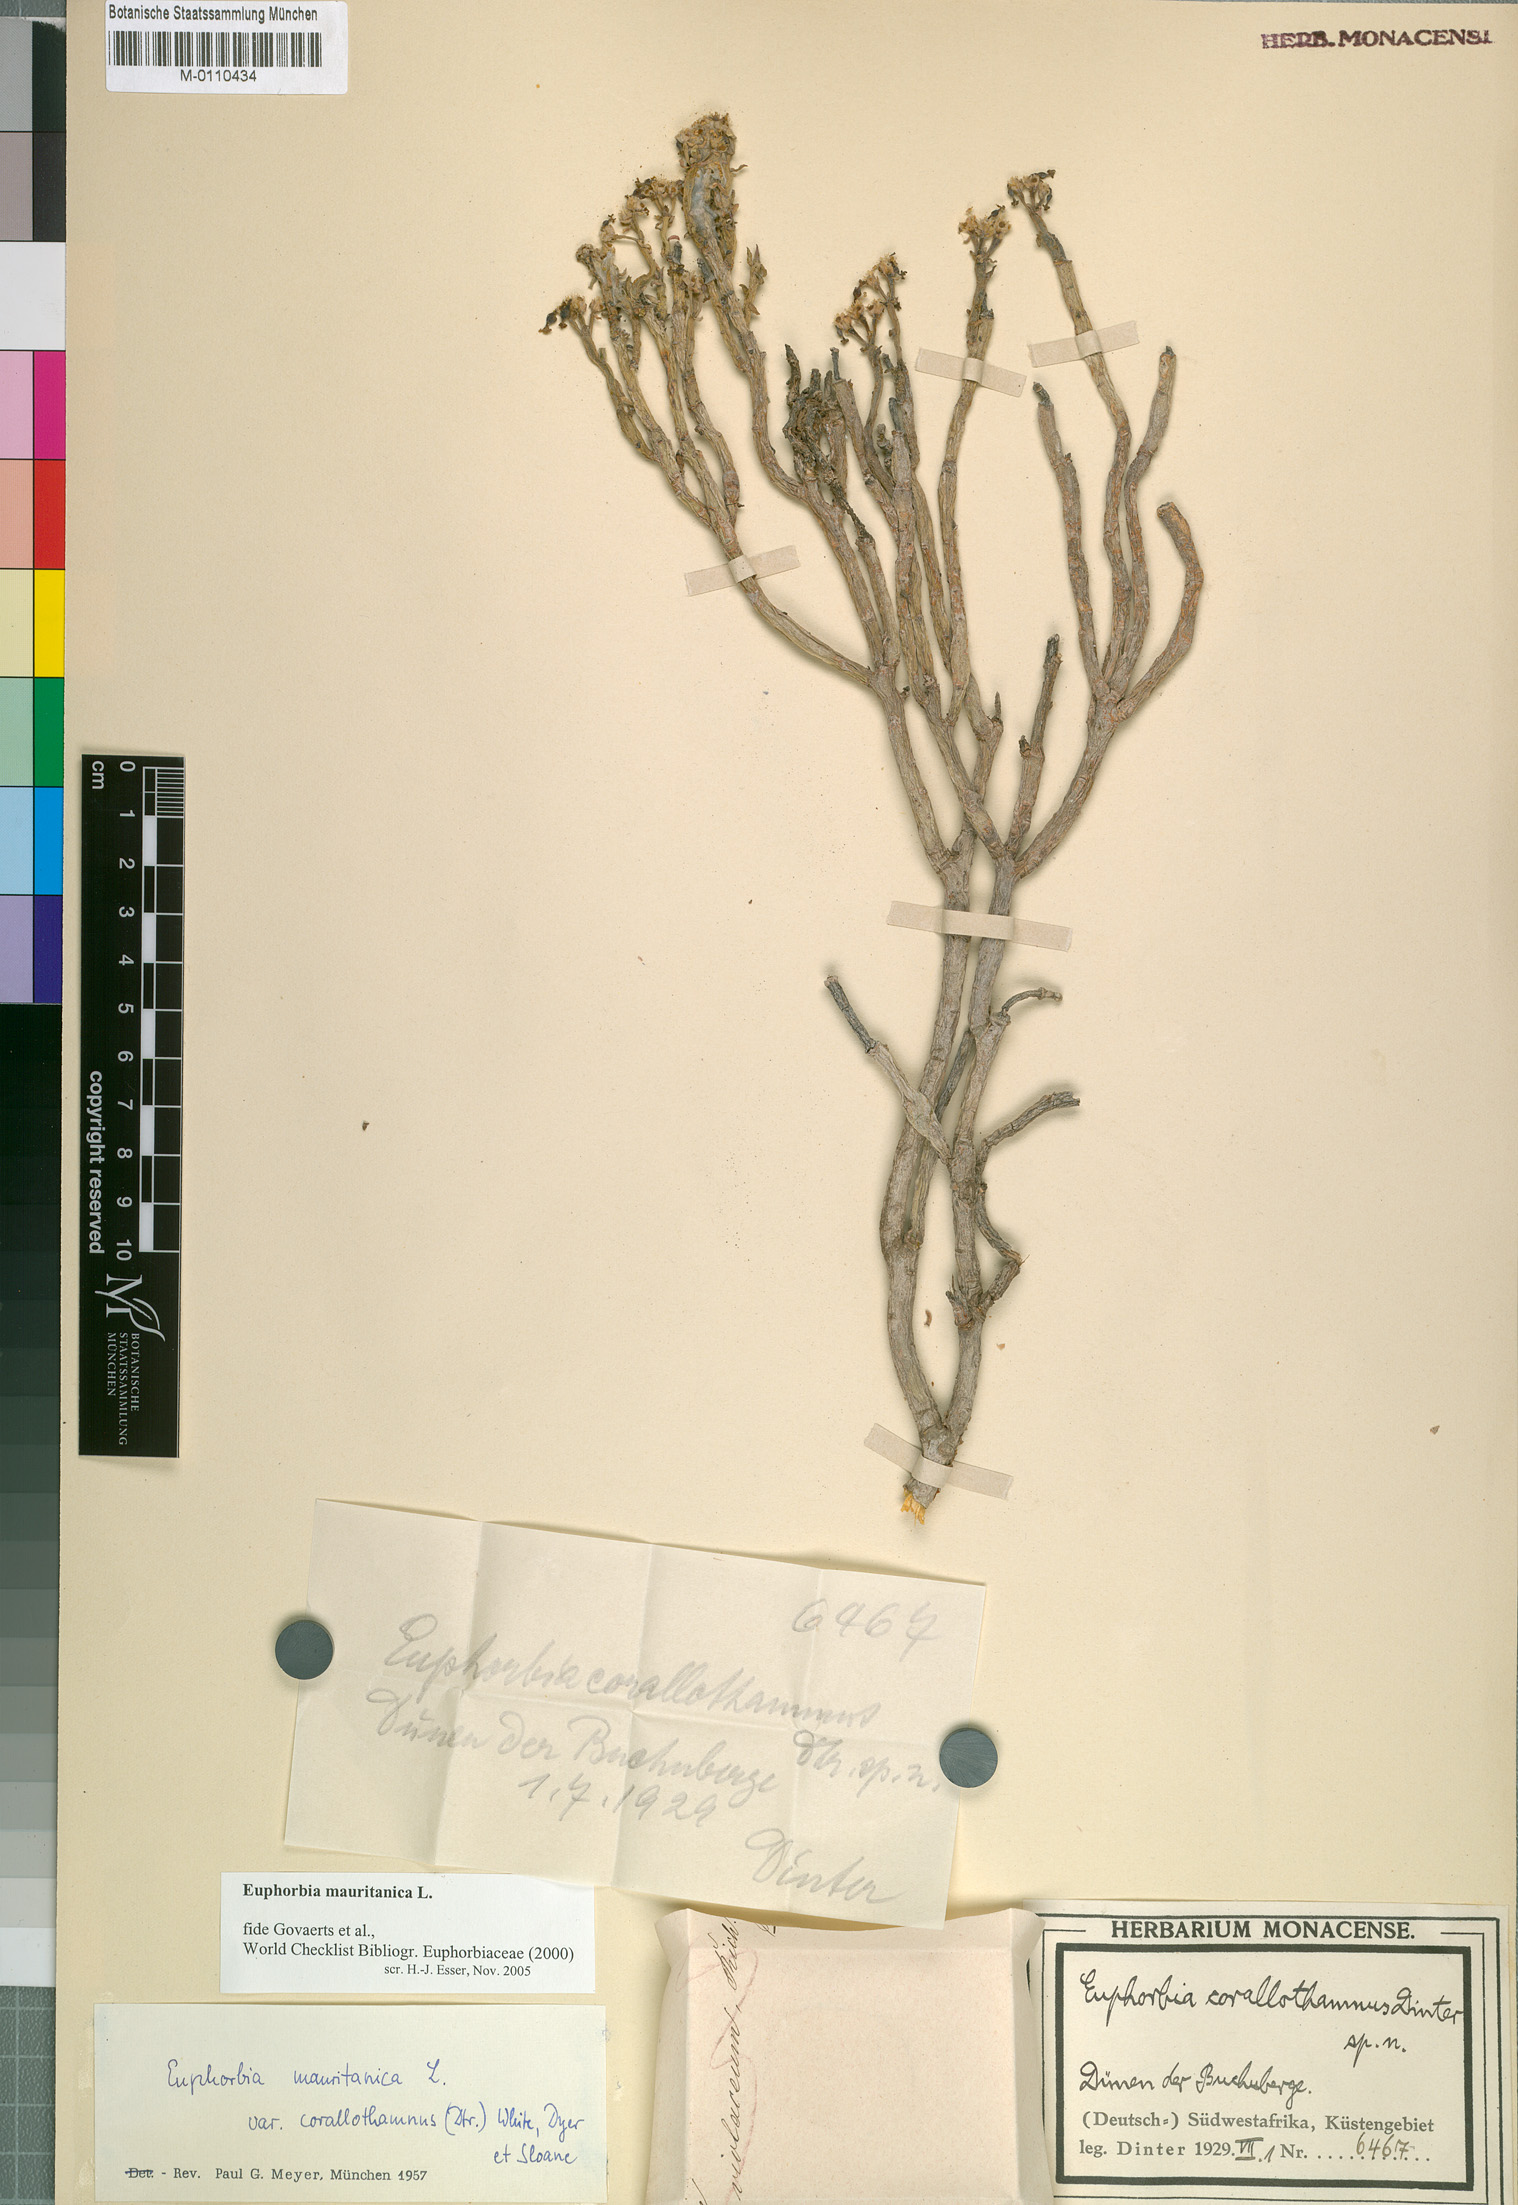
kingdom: Plantae
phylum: Tracheophyta
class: Magnoliopsida
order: Malpighiales
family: Euphorbiaceae
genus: Euphorbia
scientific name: Euphorbia mauritanica
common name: Jackal's-food
